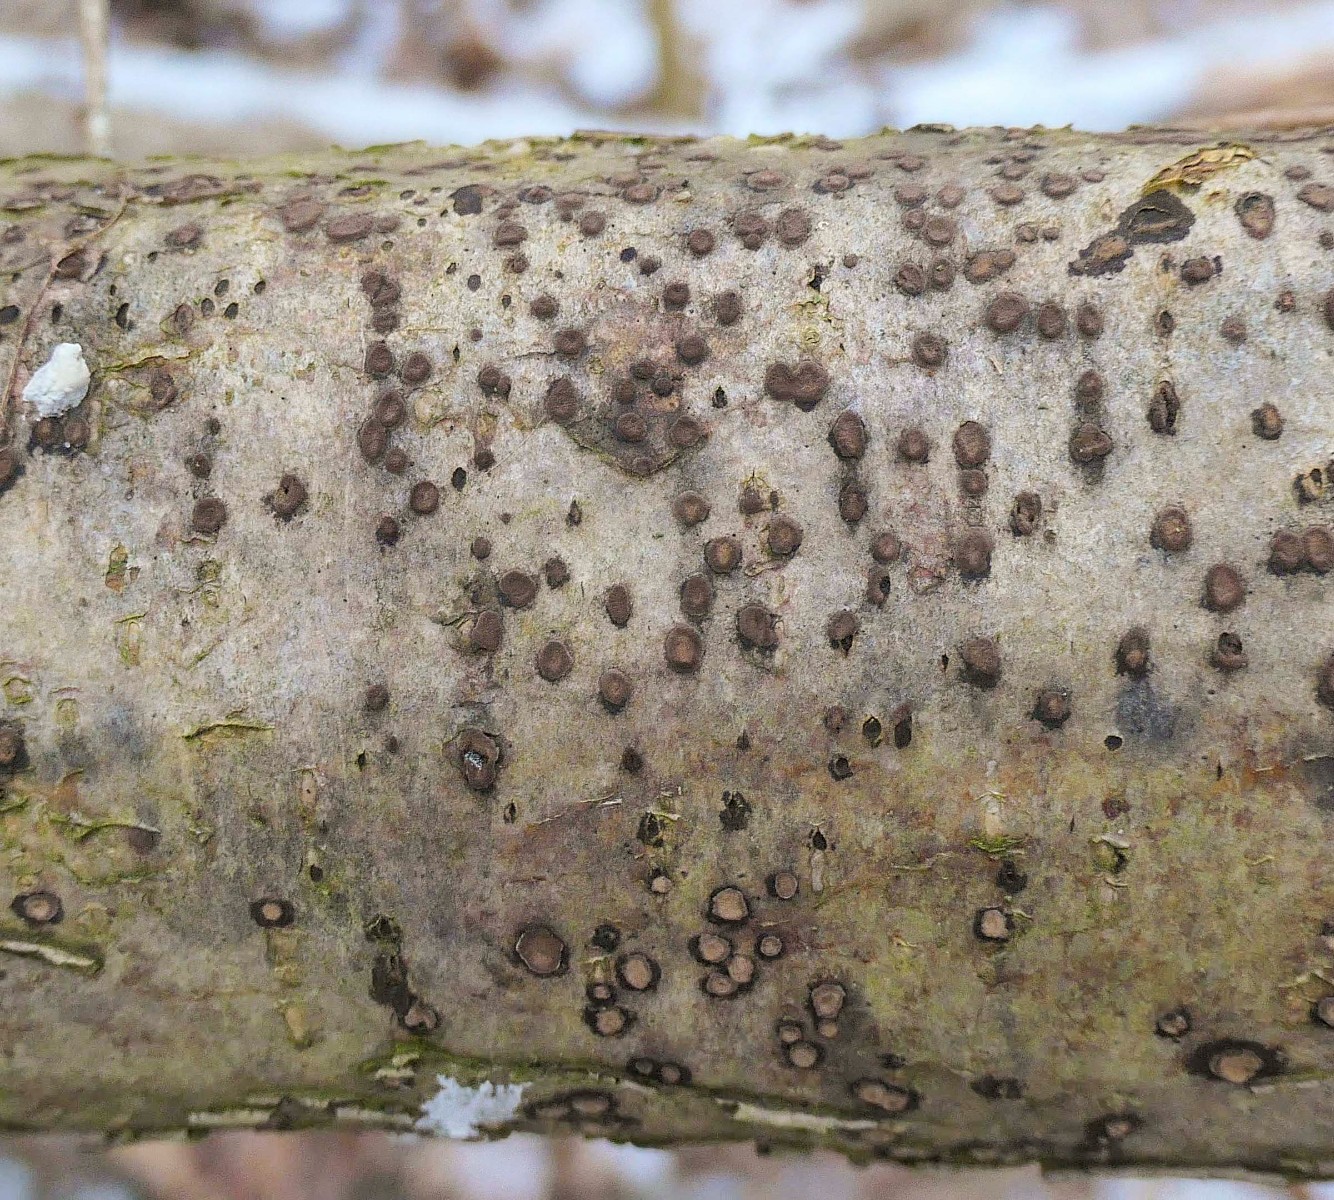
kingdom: Fungi
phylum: Ascomycota
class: Sordariomycetes
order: Xylariales
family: Hypoxylaceae
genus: Hypoxylon
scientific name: Hypoxylon fuscum
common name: kegleformet kulbær
